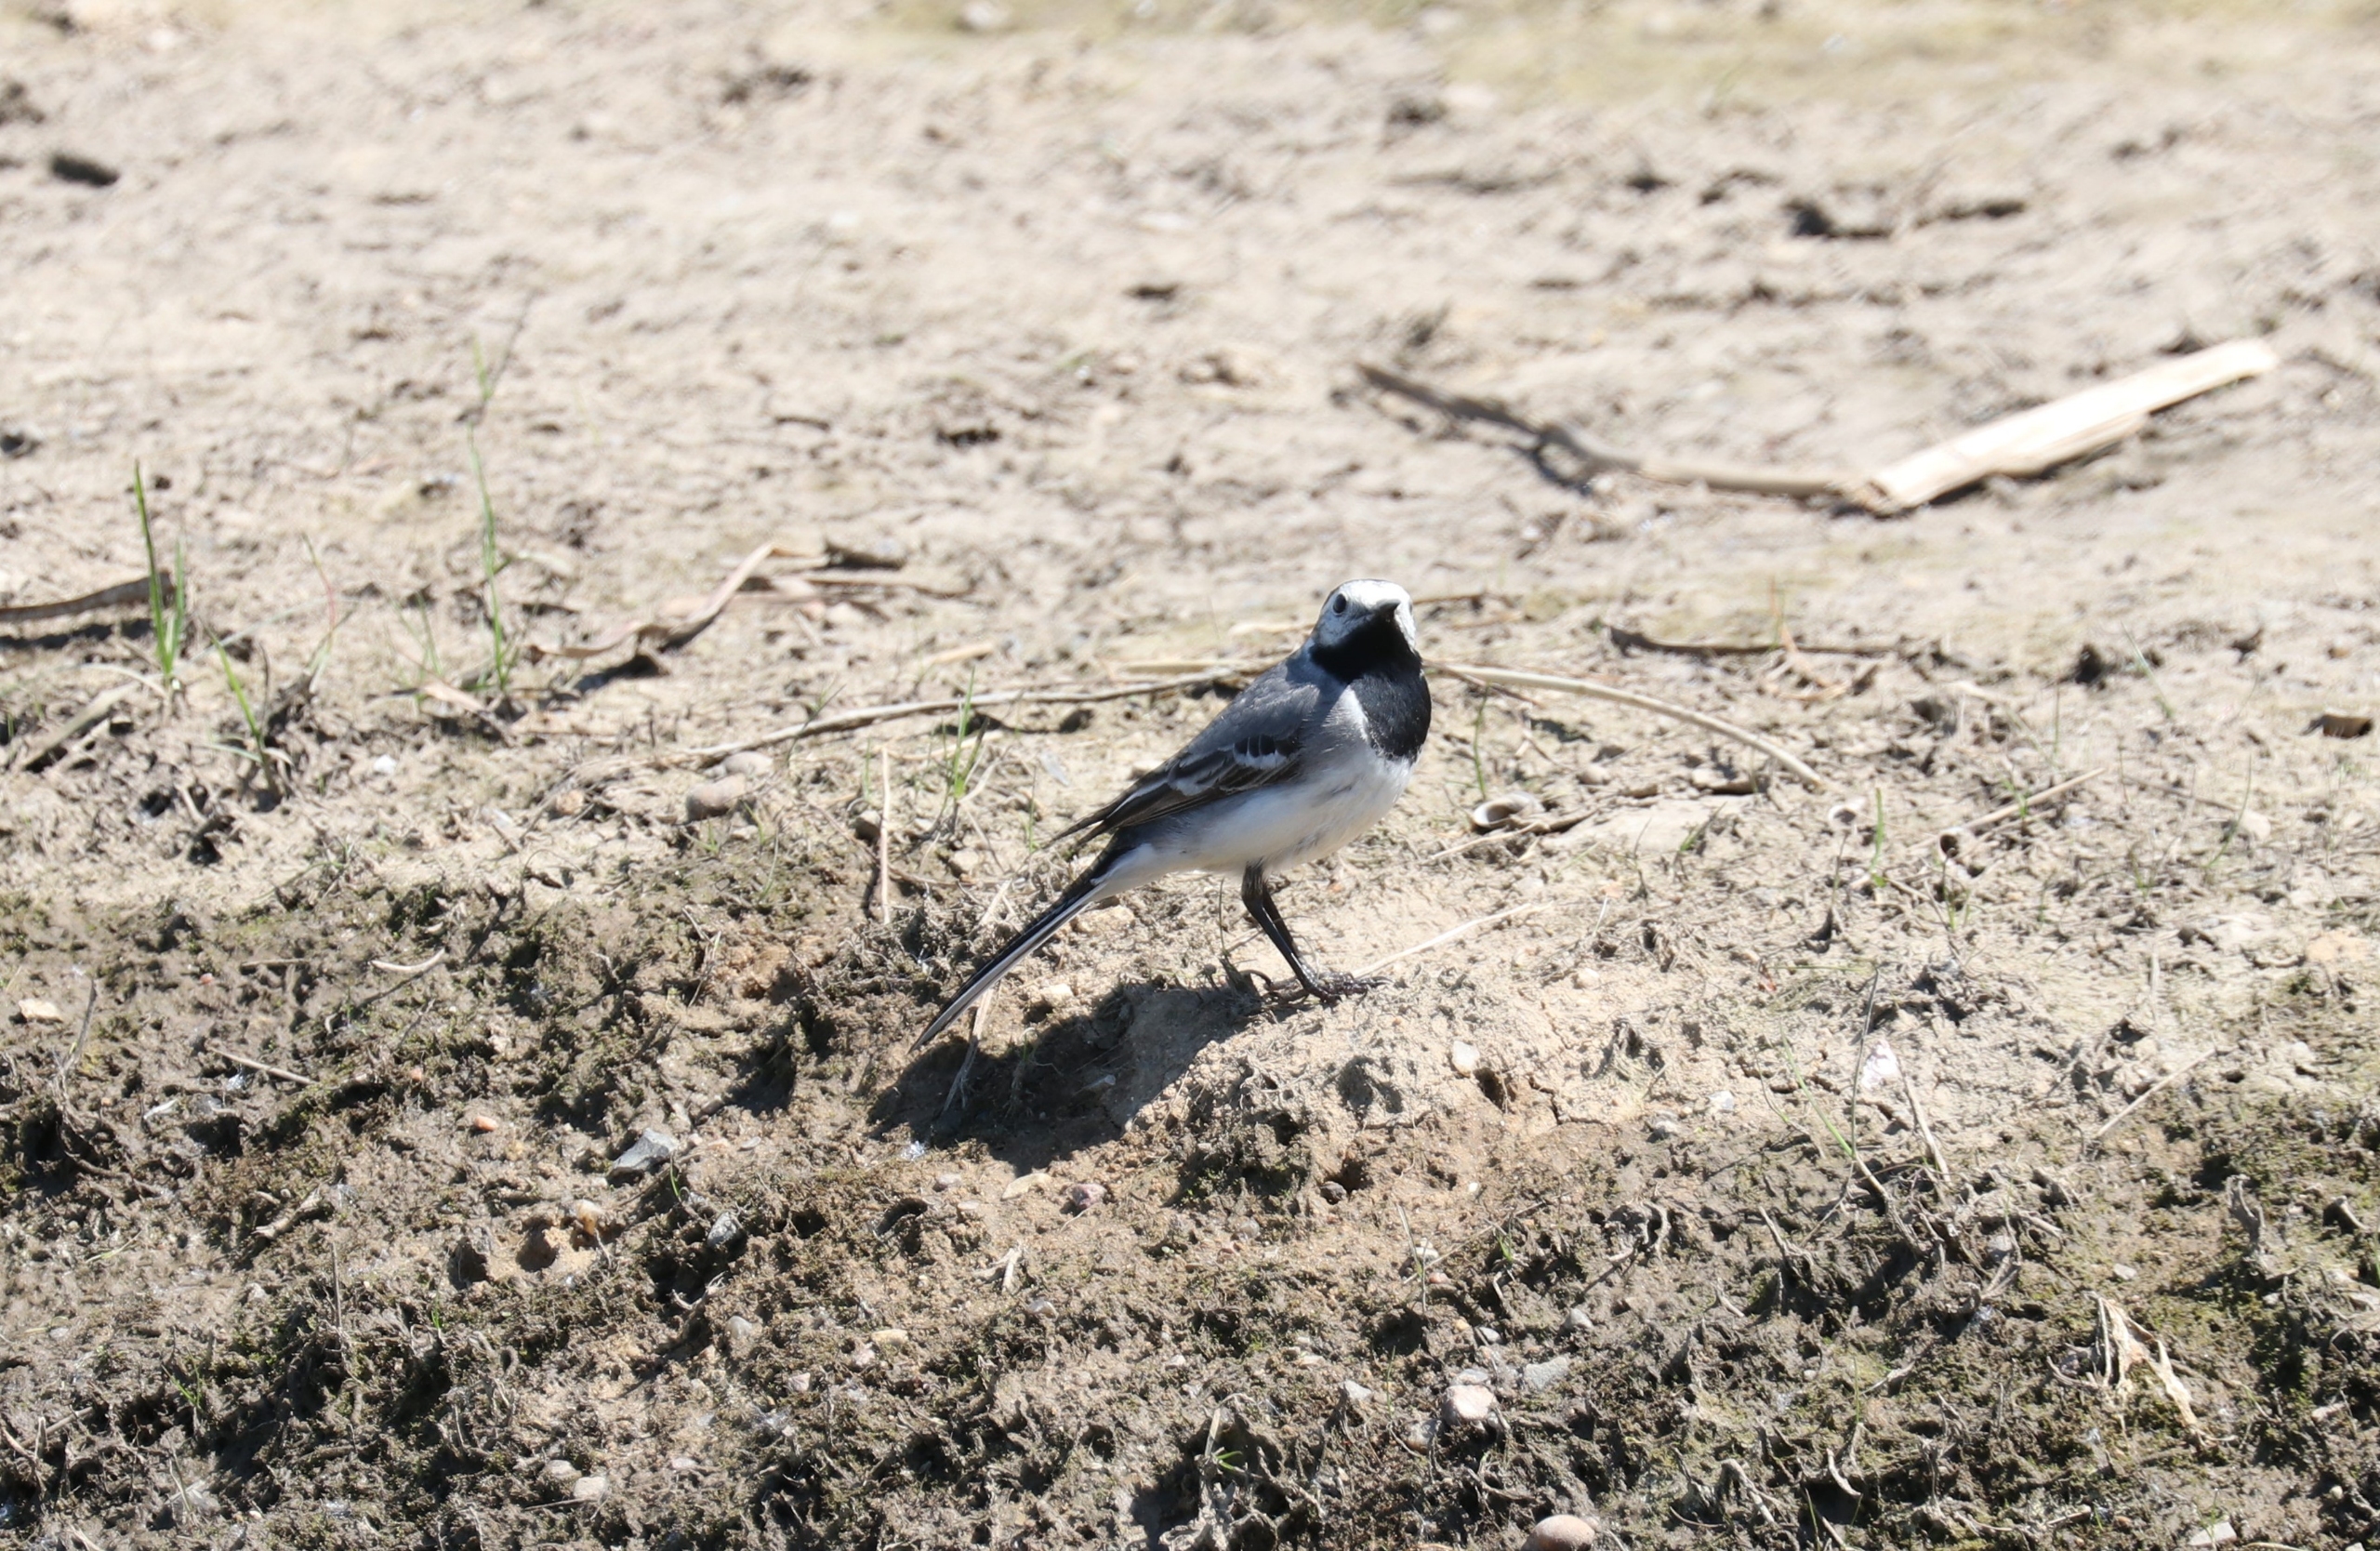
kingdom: Animalia
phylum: Chordata
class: Aves
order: Passeriformes
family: Motacillidae
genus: Motacilla
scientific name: Motacilla alba
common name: Hvid vipstjert
